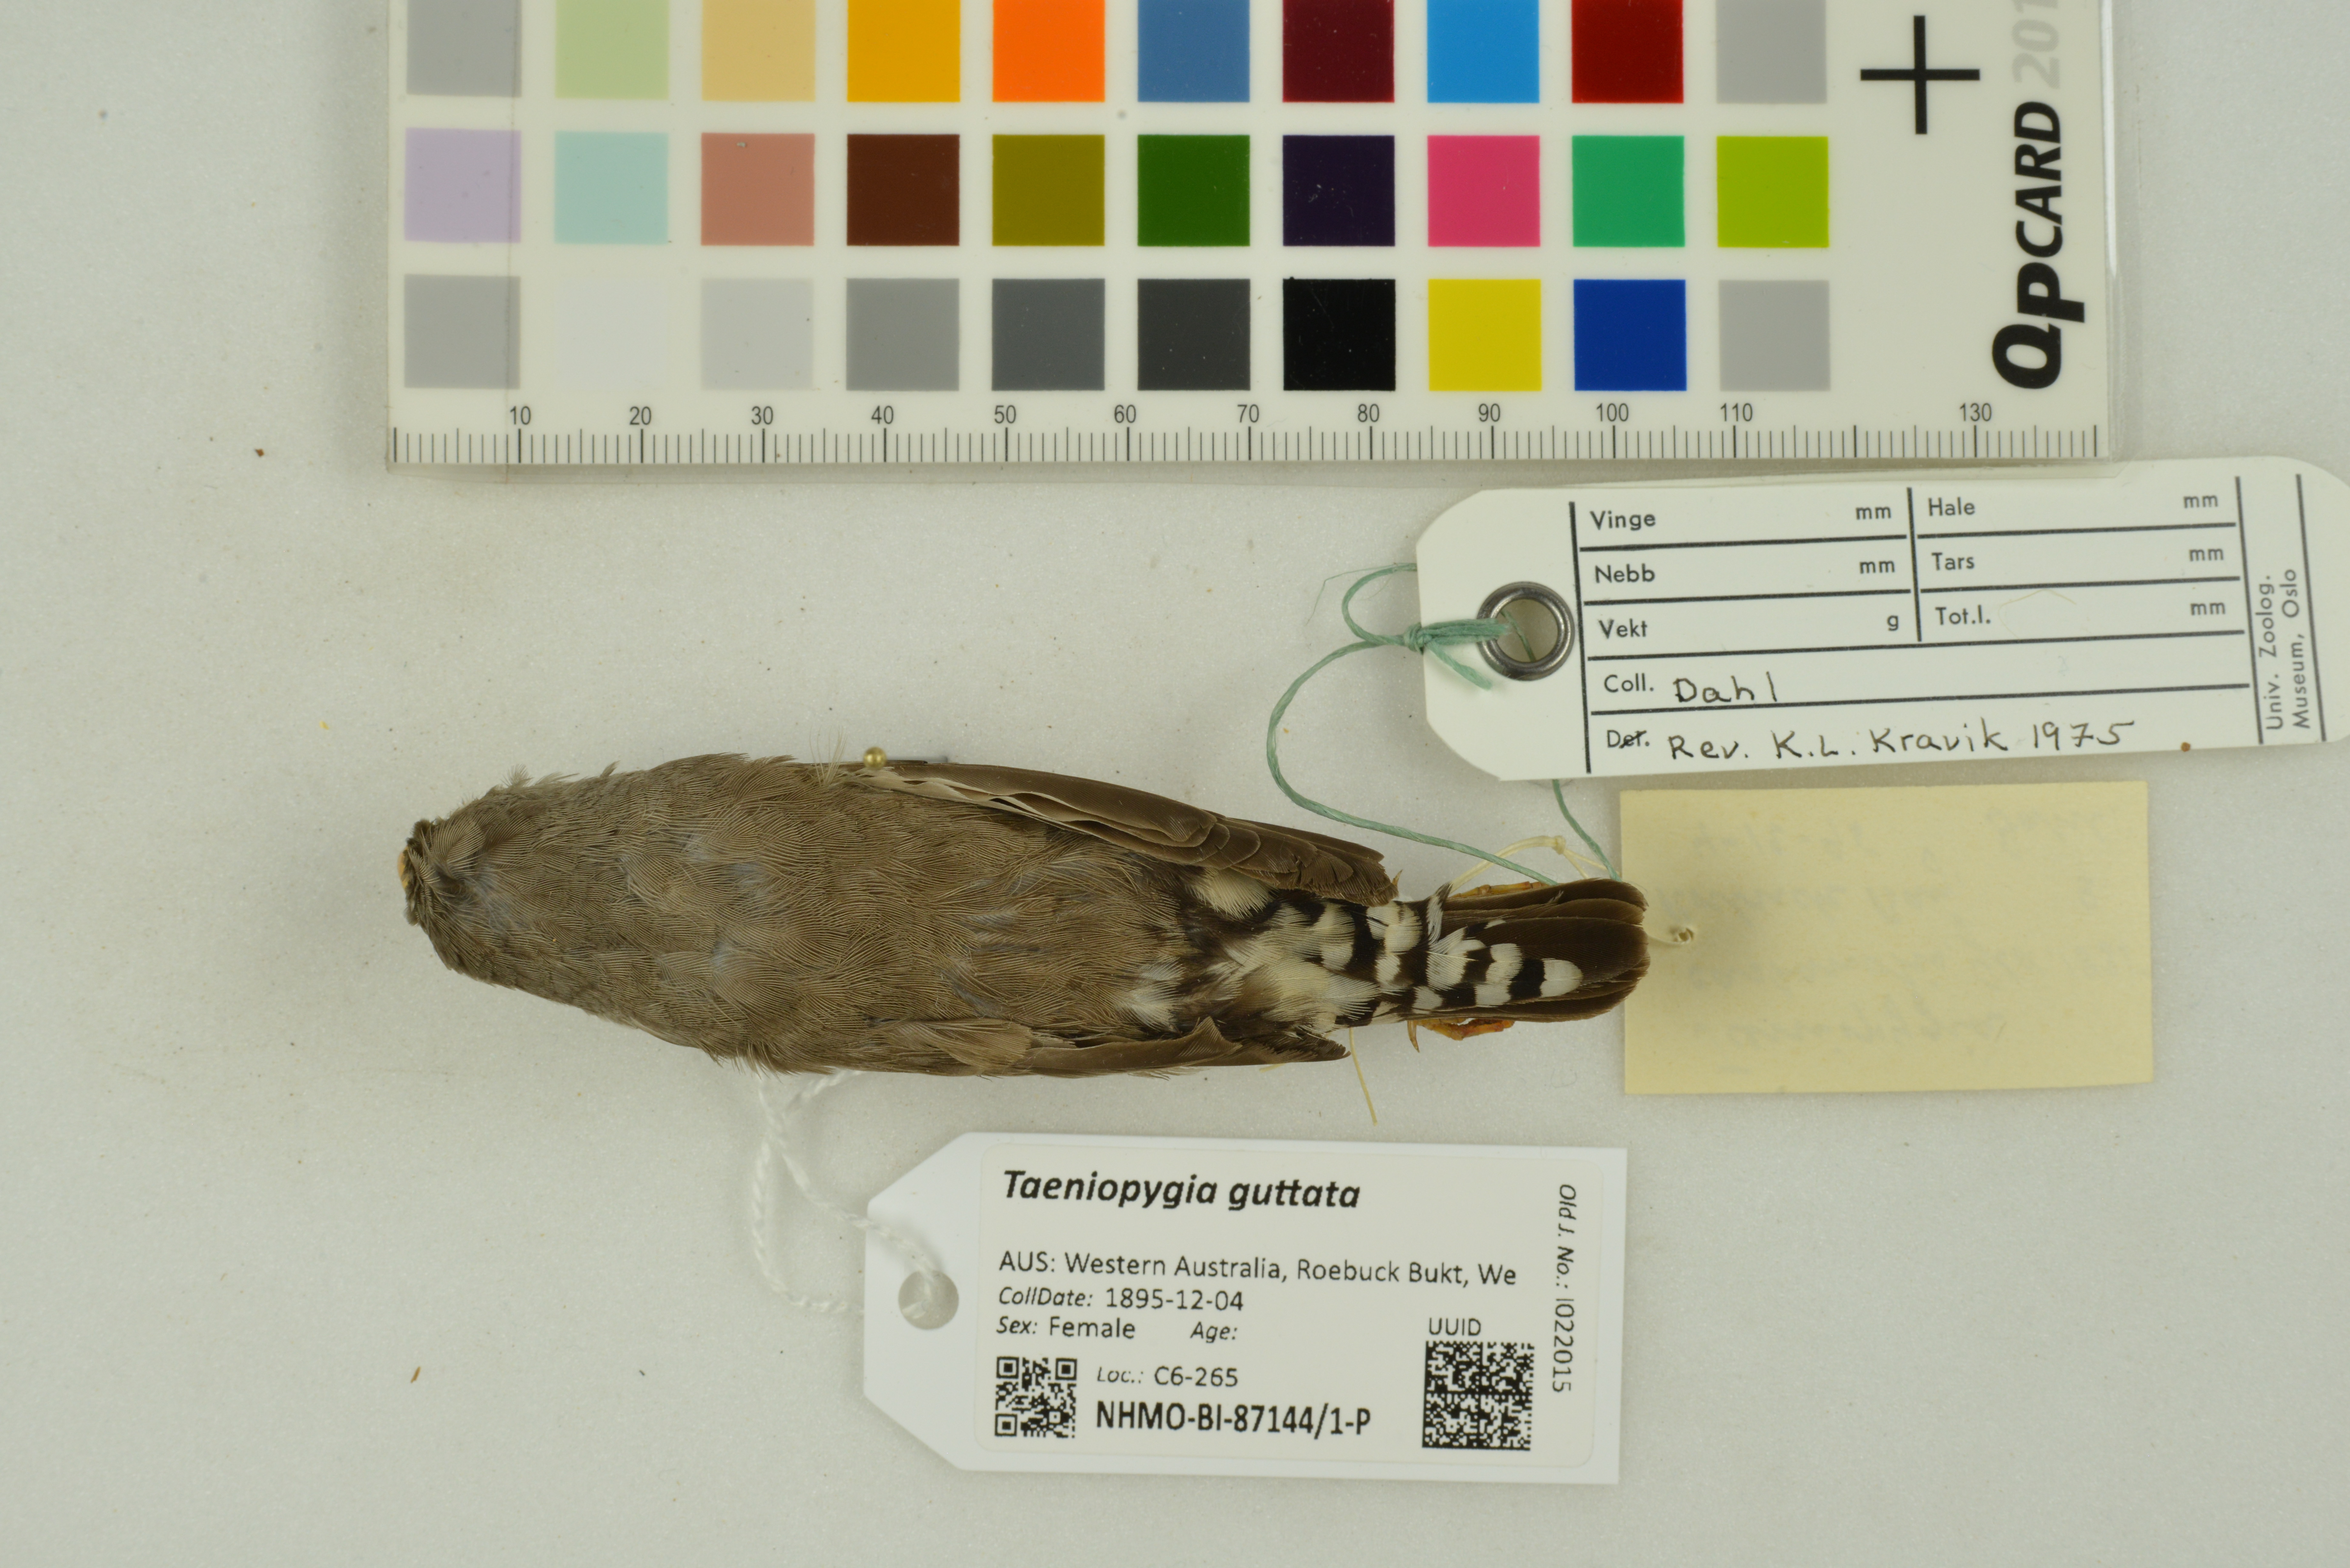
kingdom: Animalia
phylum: Chordata
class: Aves
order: Passeriformes
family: Estrildidae
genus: Taeniopygia
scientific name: Taeniopygia guttata
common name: Zebra finch
